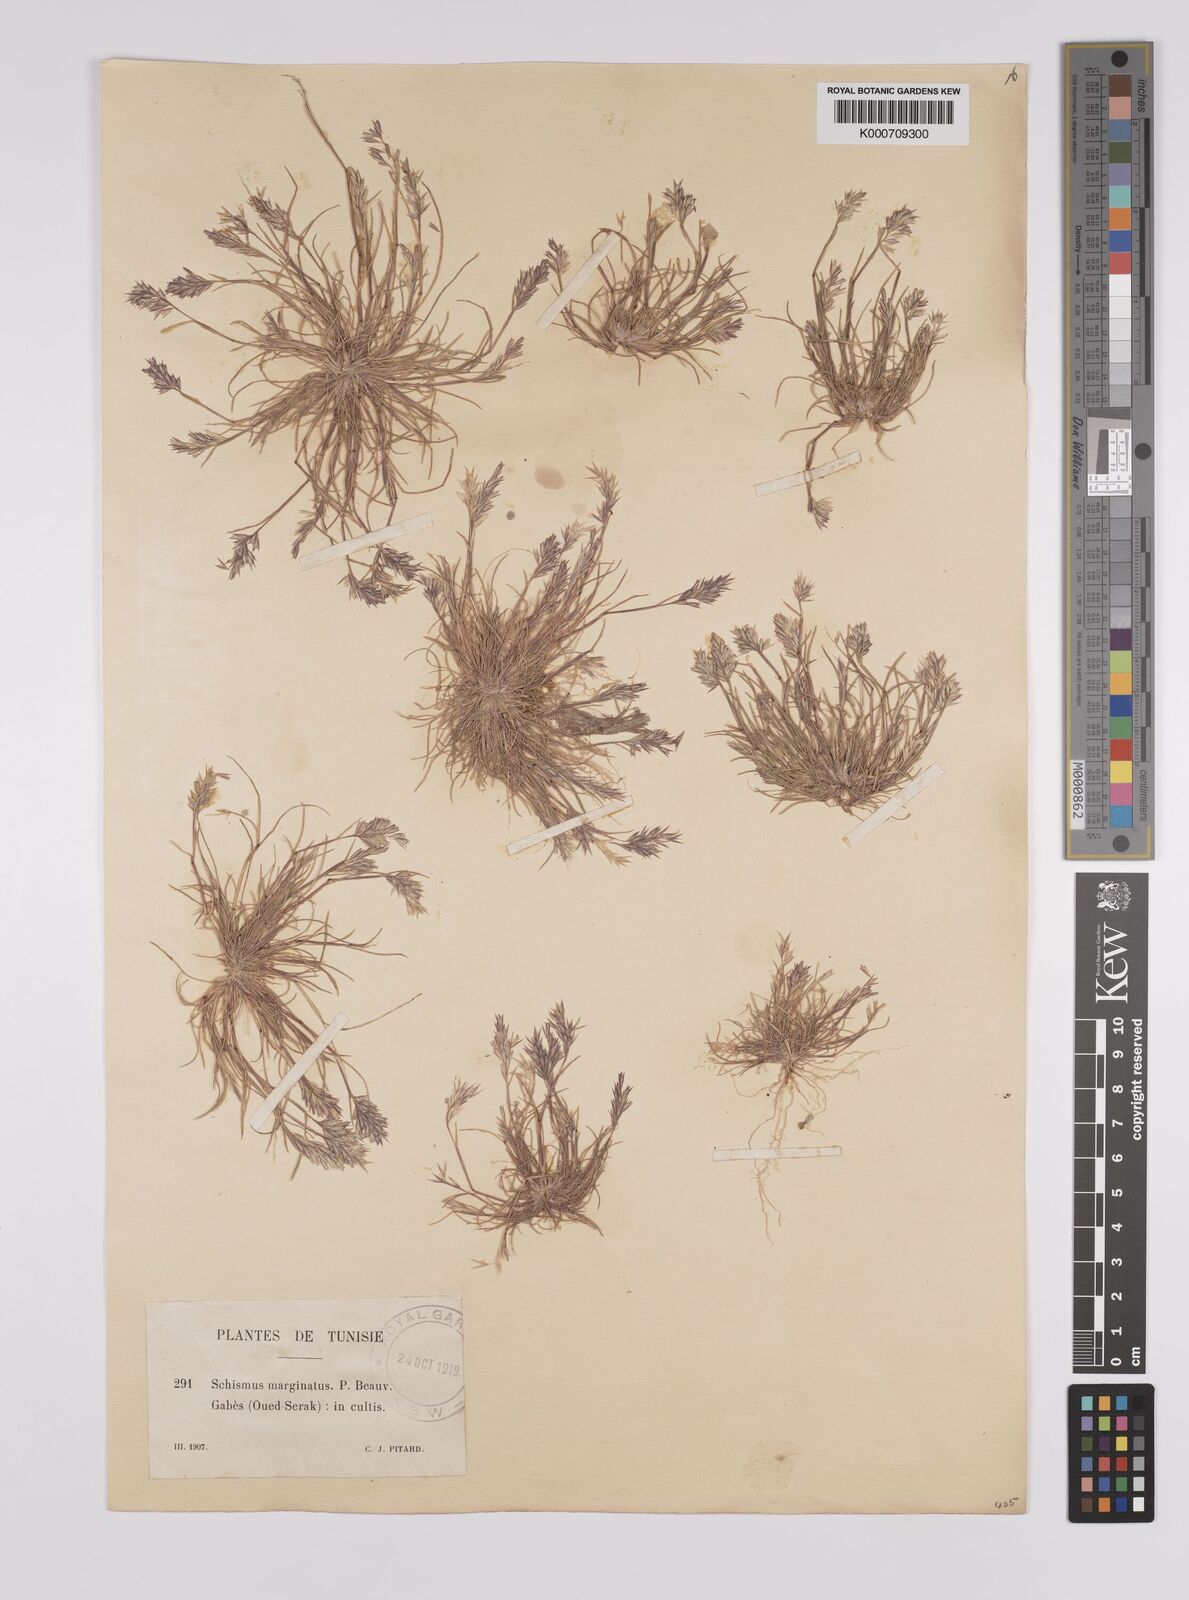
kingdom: Plantae
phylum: Tracheophyta
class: Liliopsida
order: Poales
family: Poaceae
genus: Schismus
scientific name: Schismus barbatus
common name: Kelch-grass
